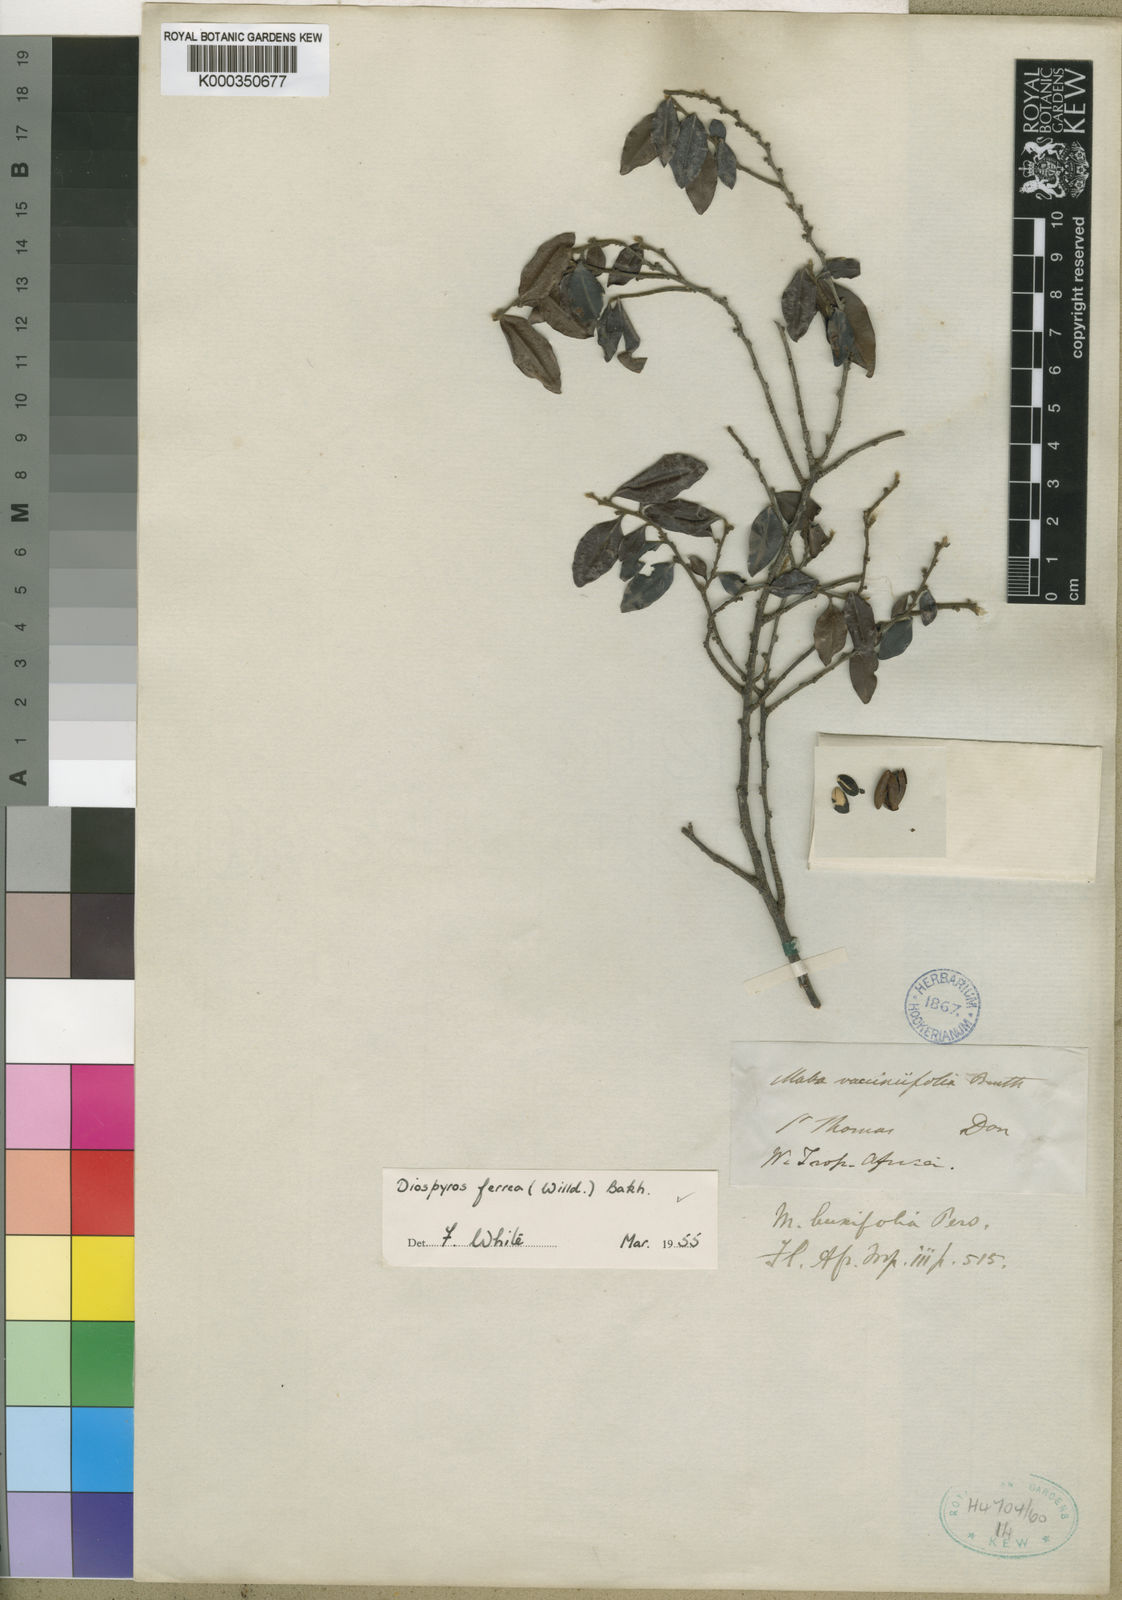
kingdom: Plantae
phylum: Tracheophyta
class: Magnoliopsida
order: Ericales
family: Ebenaceae
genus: Diospyros
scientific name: Diospyros ferrea
